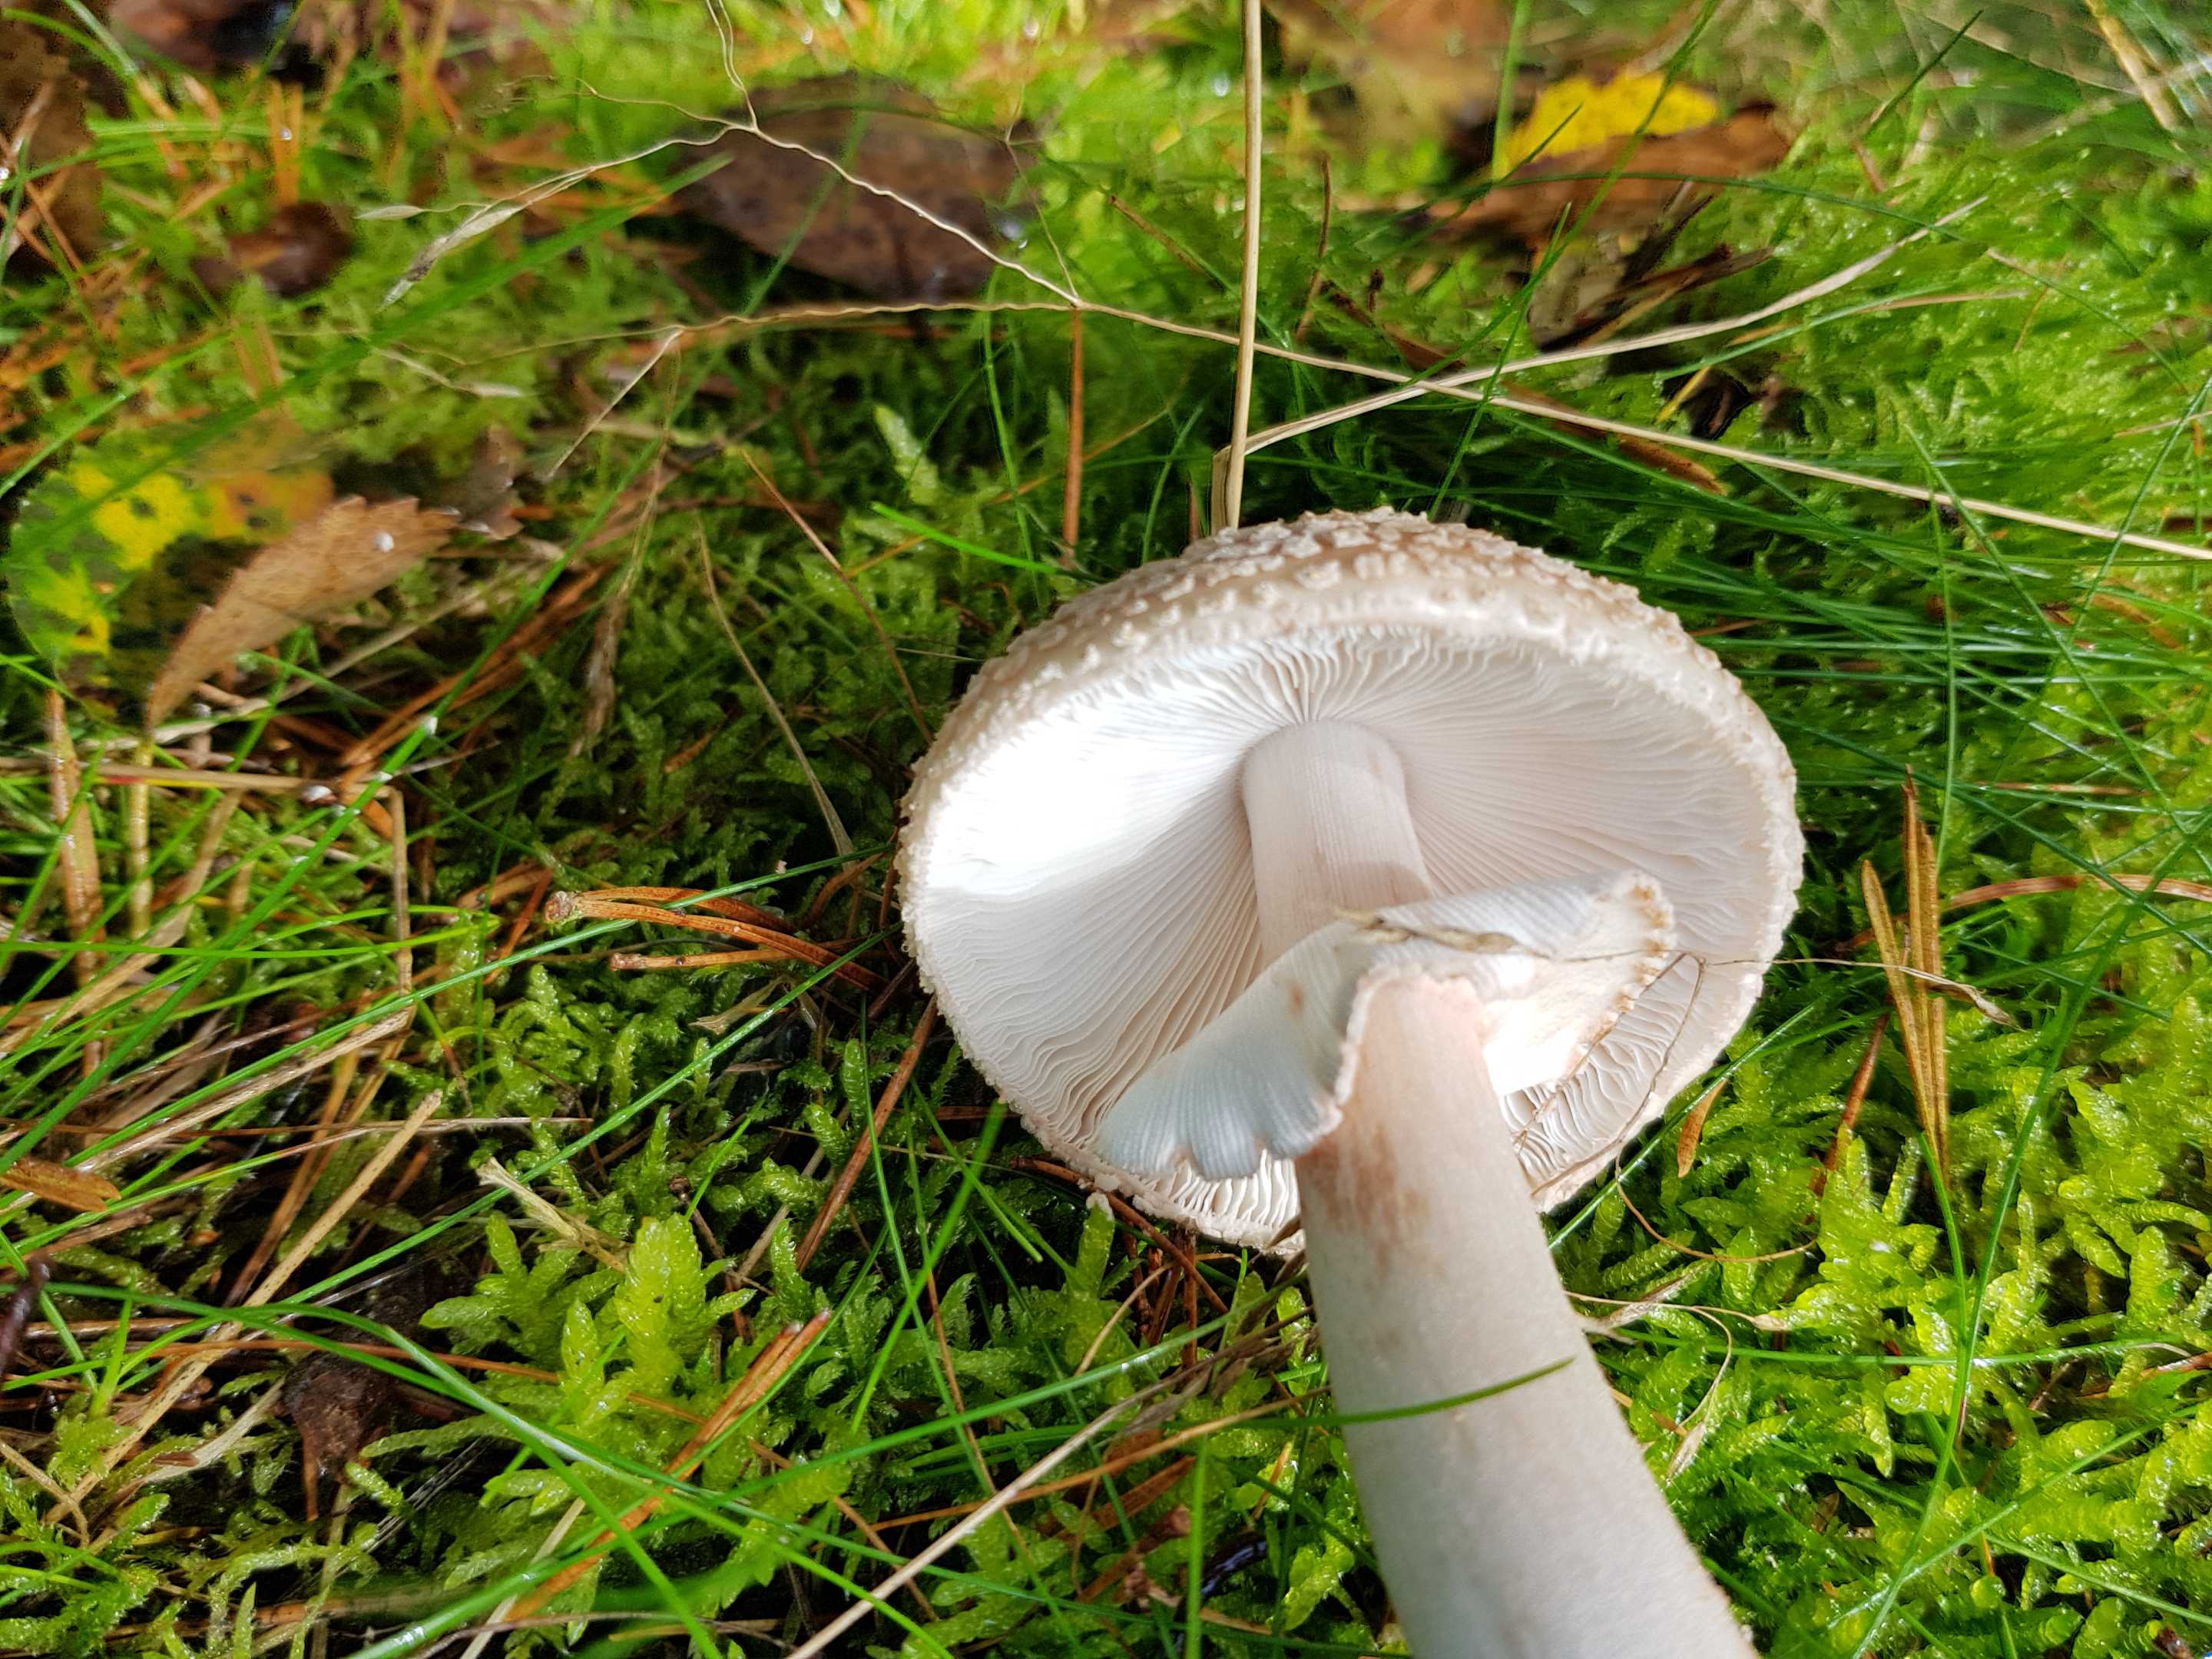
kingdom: Fungi
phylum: Basidiomycota
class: Agaricomycetes
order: Agaricales
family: Amanitaceae
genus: Amanita
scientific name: Amanita rubescens
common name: rødmende fluesvamp
